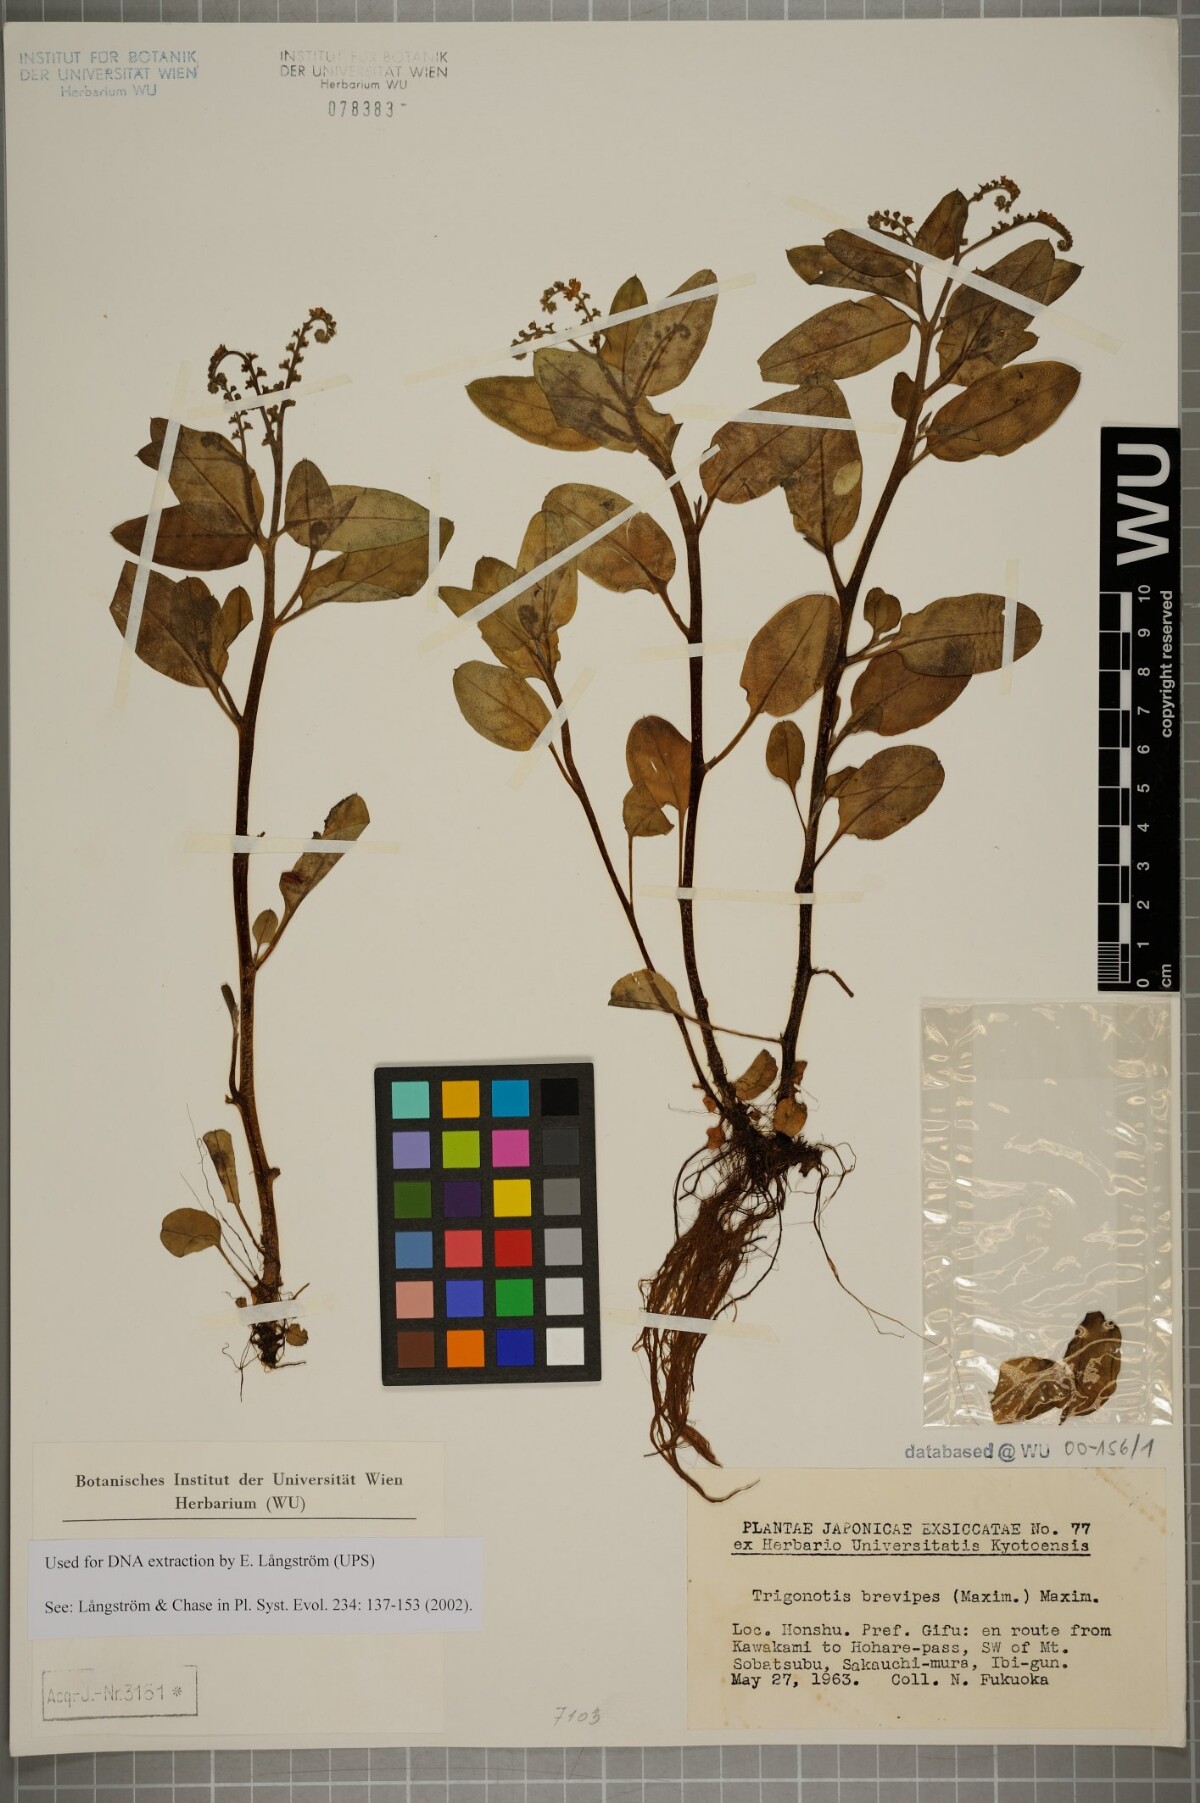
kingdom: Plantae
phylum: Tracheophyta
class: Magnoliopsida
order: Boraginales
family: Boraginaceae
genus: Trigonotis
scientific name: Trigonotis brevipes
